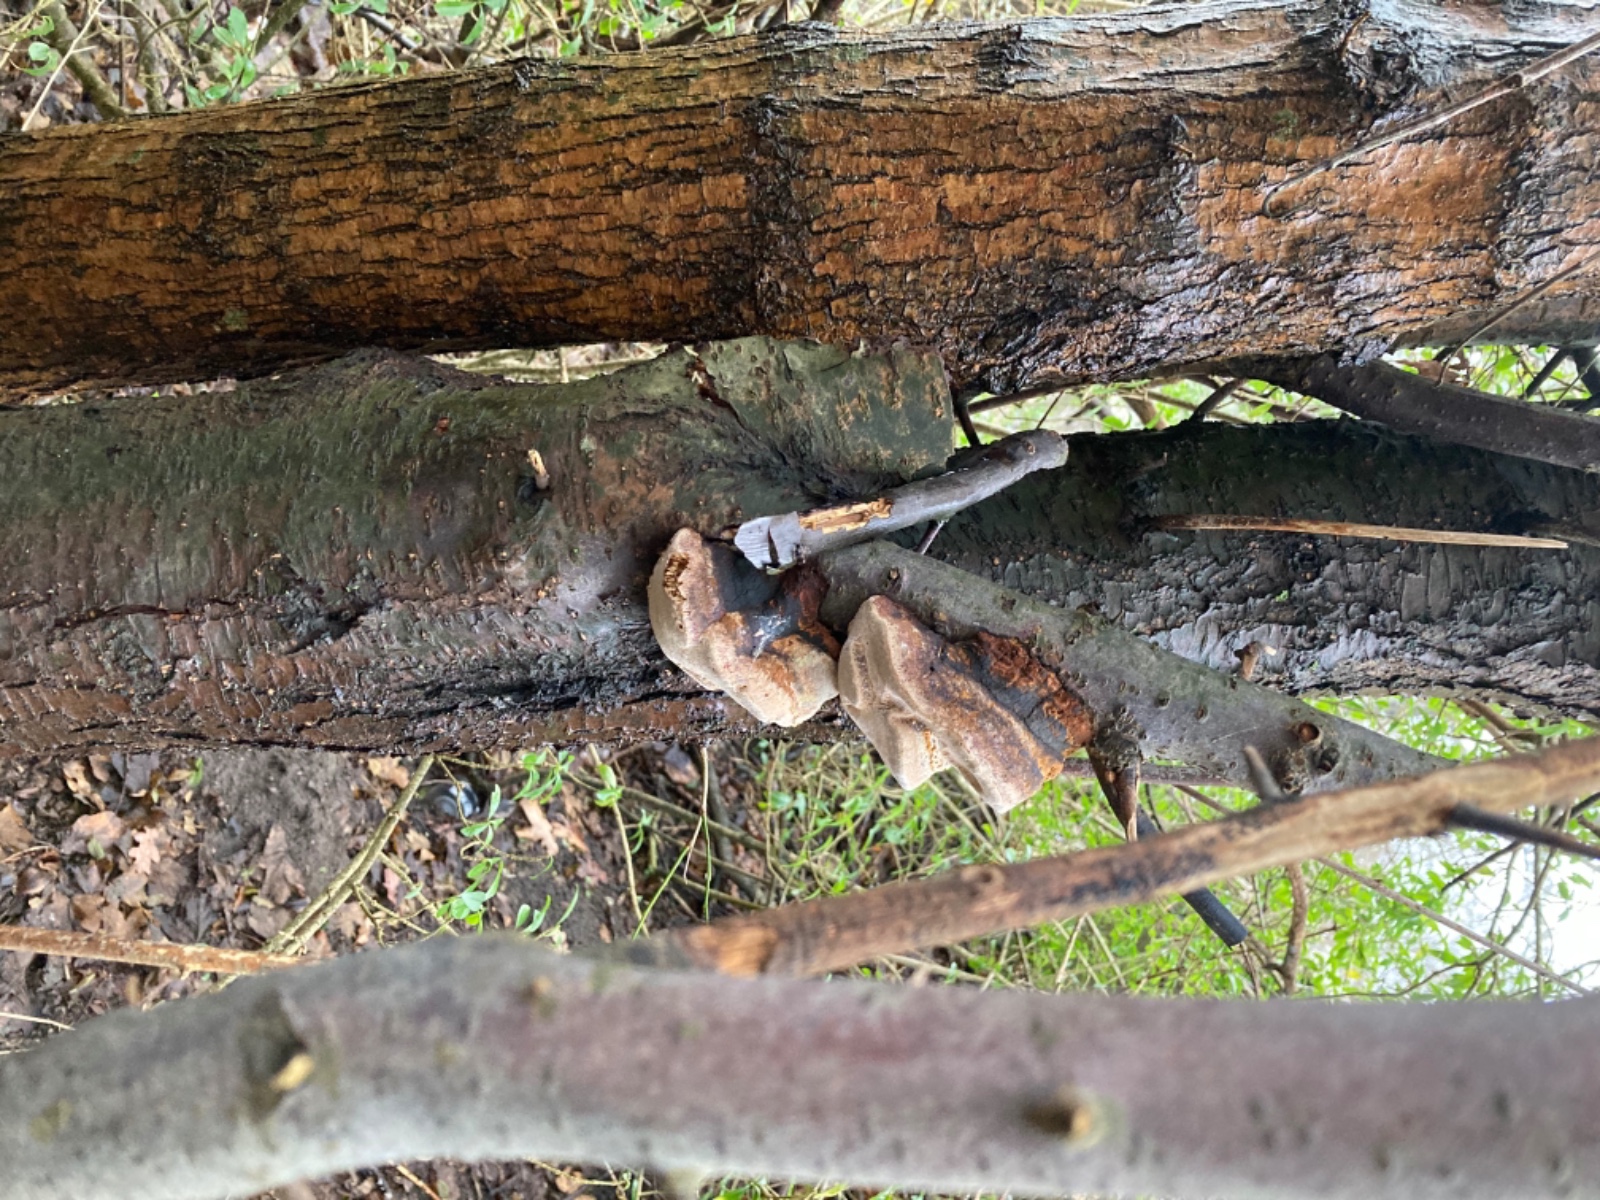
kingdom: Fungi
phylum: Basidiomycota
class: Agaricomycetes
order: Hymenochaetales
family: Hymenochaetaceae
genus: Phellinus
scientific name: Phellinus pomaceus
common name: blomme-ildporesvamp
